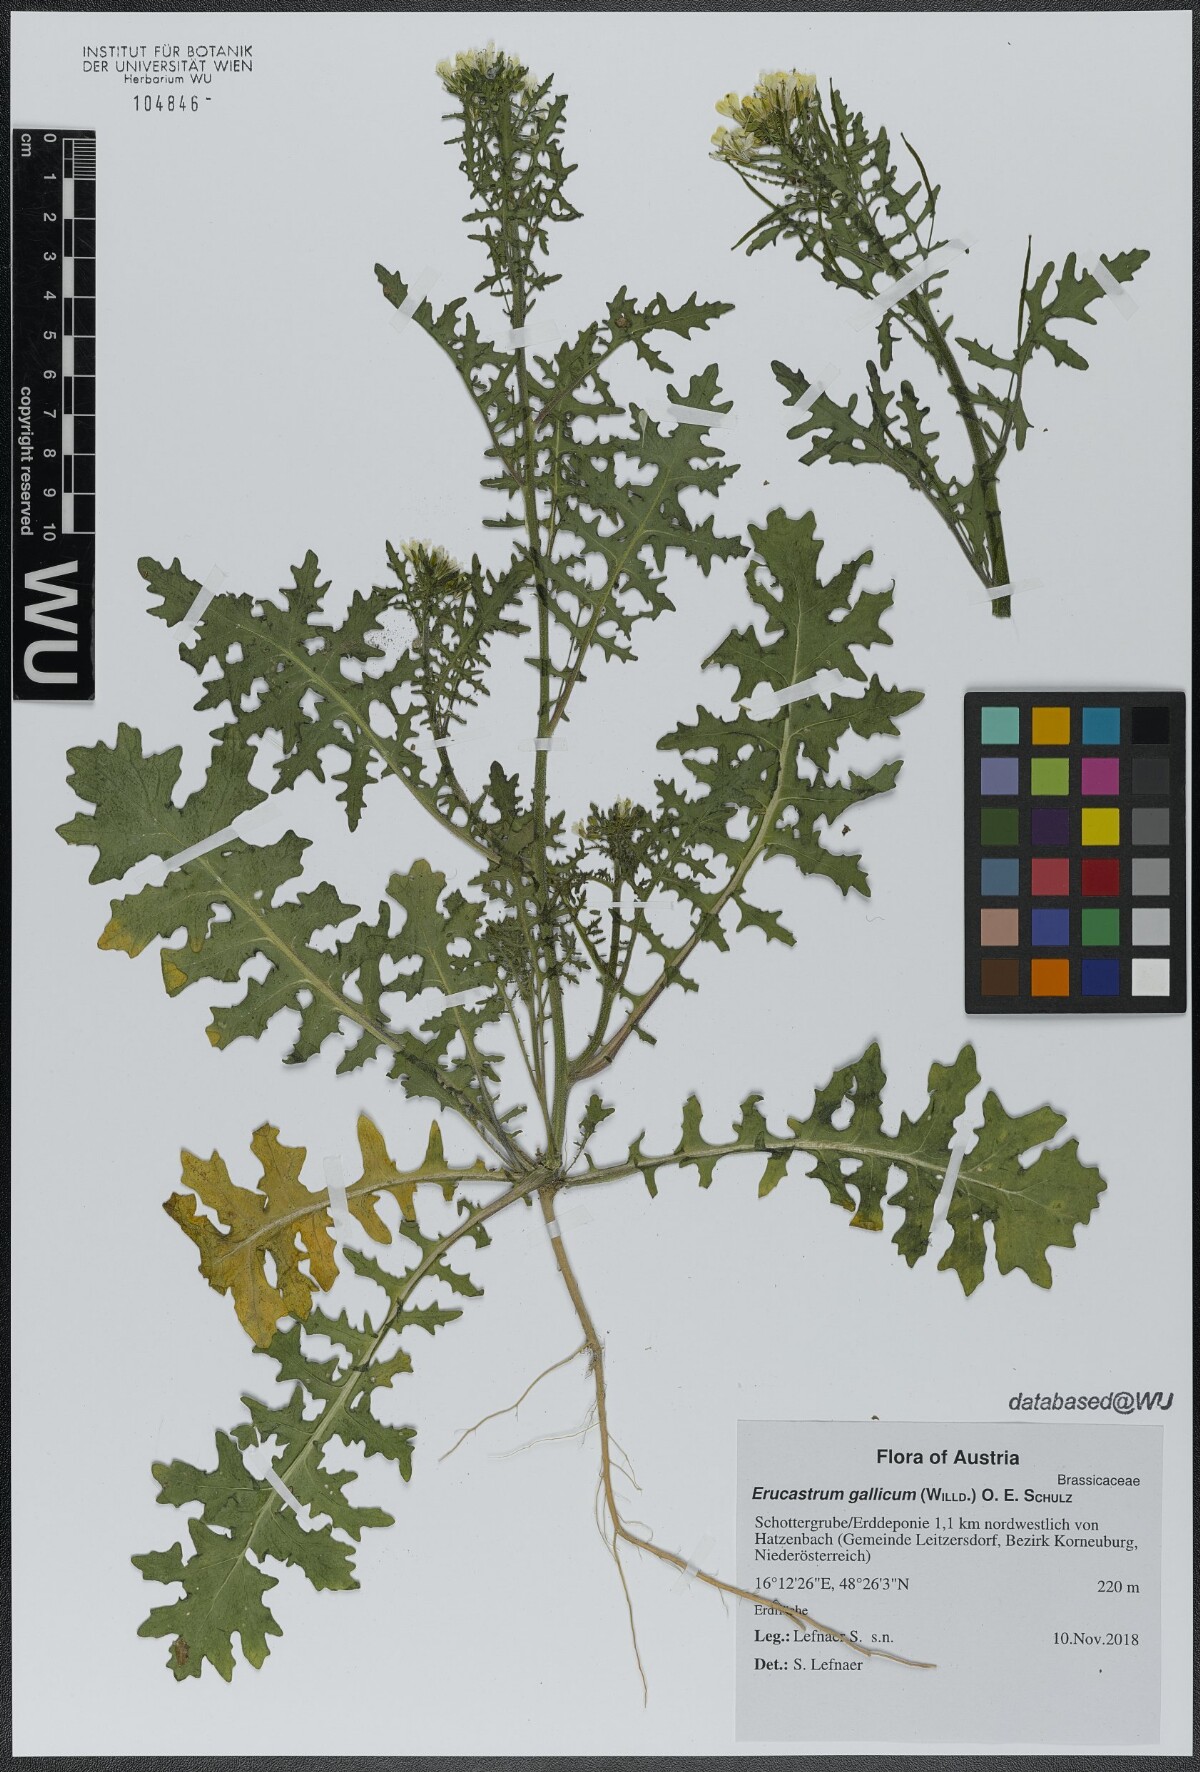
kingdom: Plantae
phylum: Tracheophyta
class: Magnoliopsida
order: Brassicales
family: Brassicaceae
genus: Erucastrum
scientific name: Erucastrum gallicum
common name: Hairy rocket
